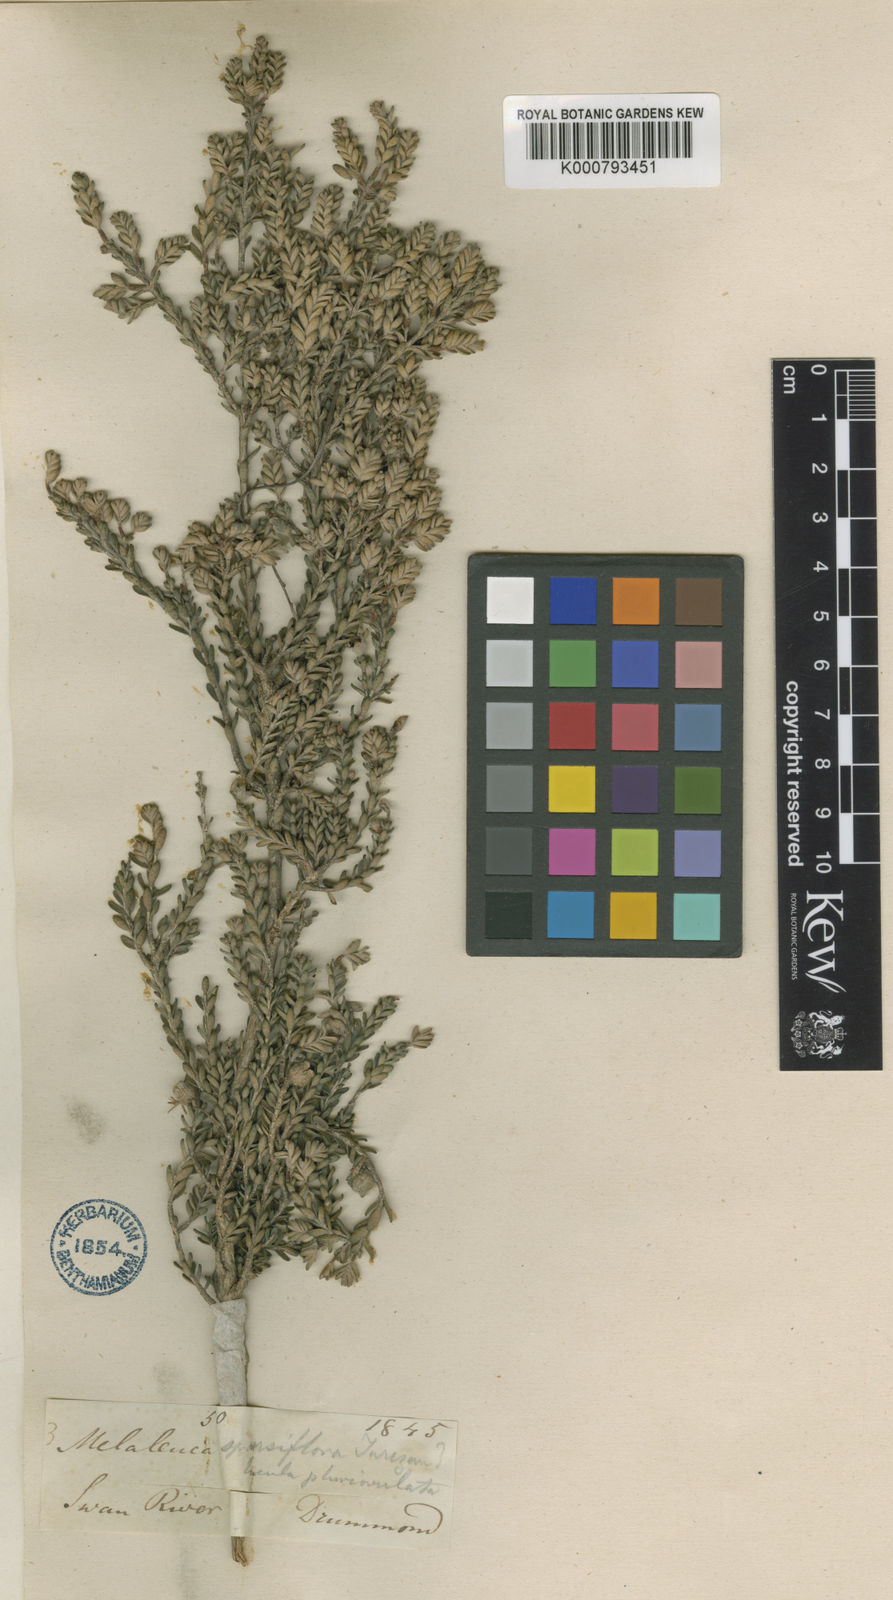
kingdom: Plantae
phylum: Tracheophyta
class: Magnoliopsida
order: Myrtales
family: Myrtaceae
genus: Melaleuca
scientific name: Melaleuca sparsiflora
